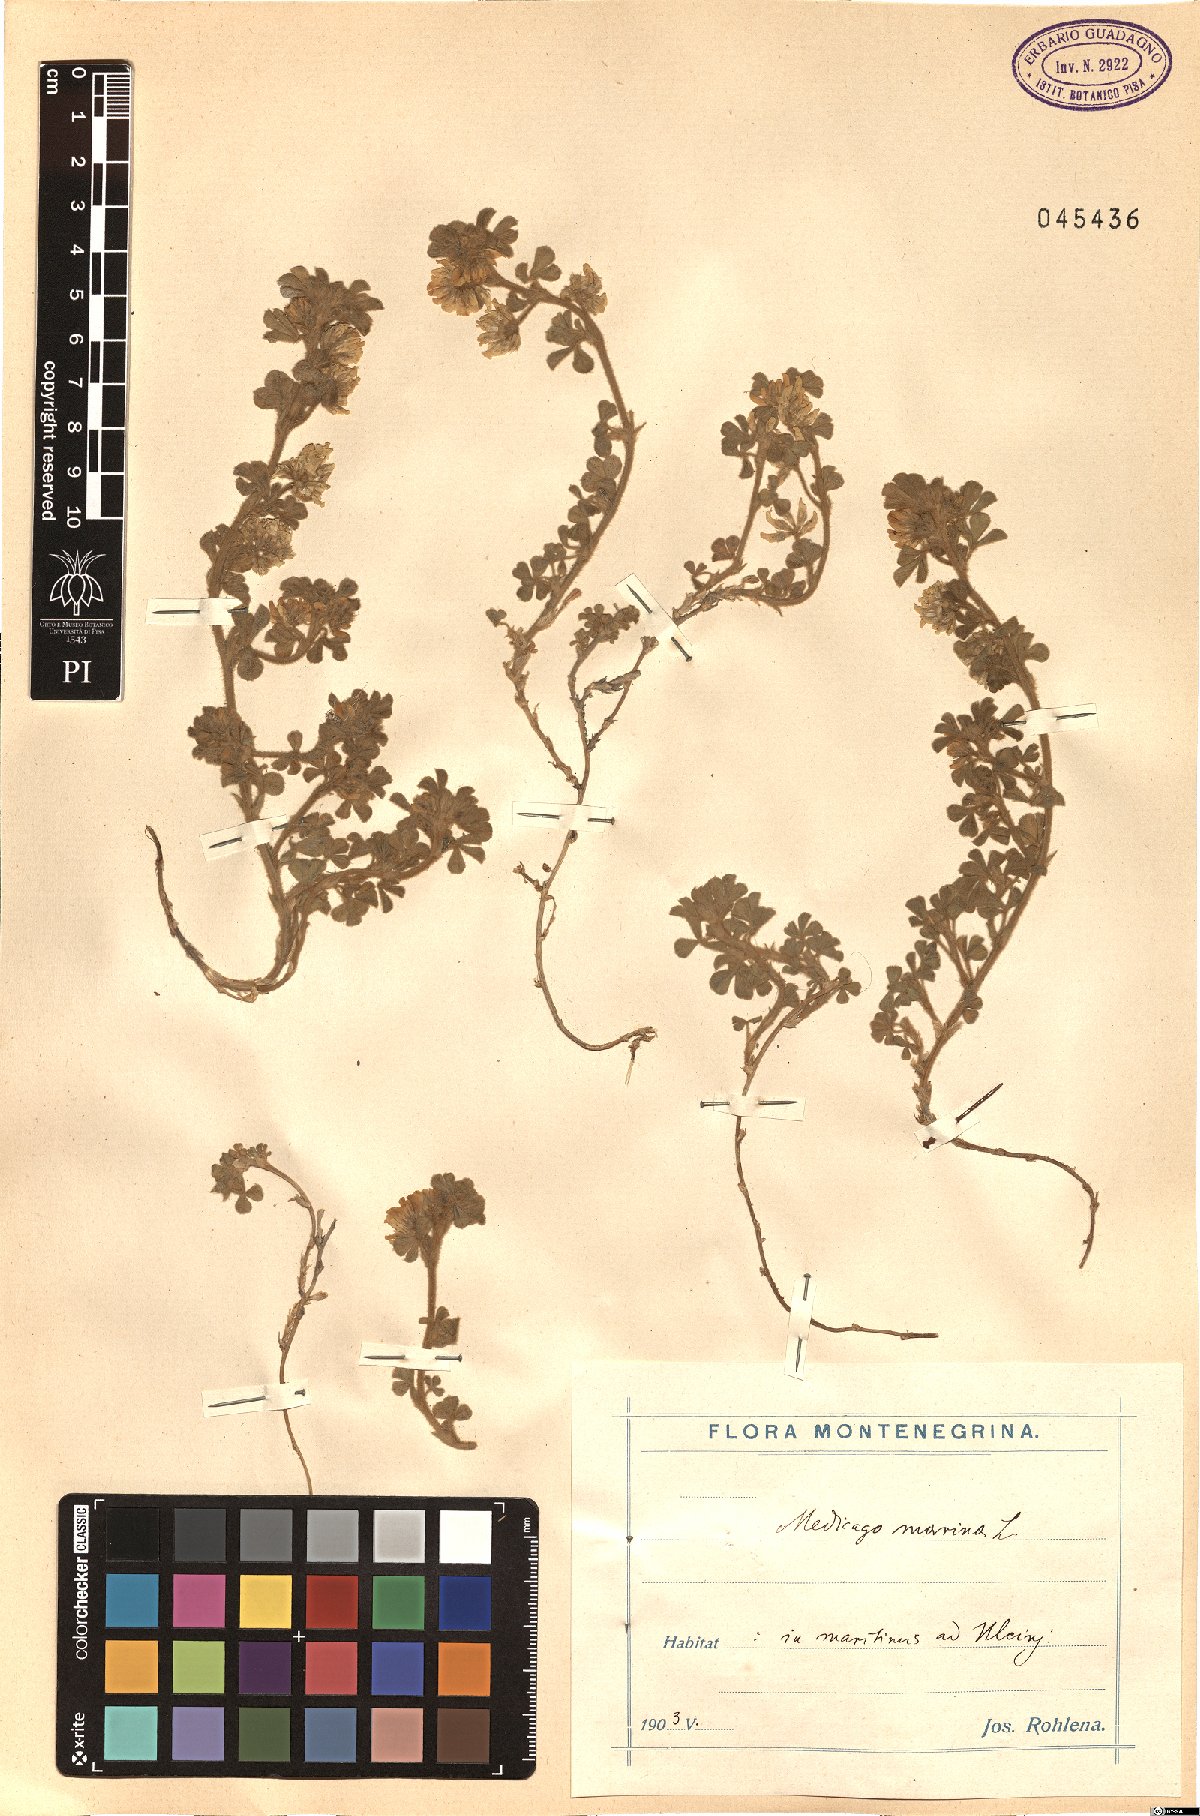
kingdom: Plantae
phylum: Tracheophyta
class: Magnoliopsida
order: Fabales
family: Fabaceae
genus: Medicago
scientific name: Medicago marina
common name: Sea medick
